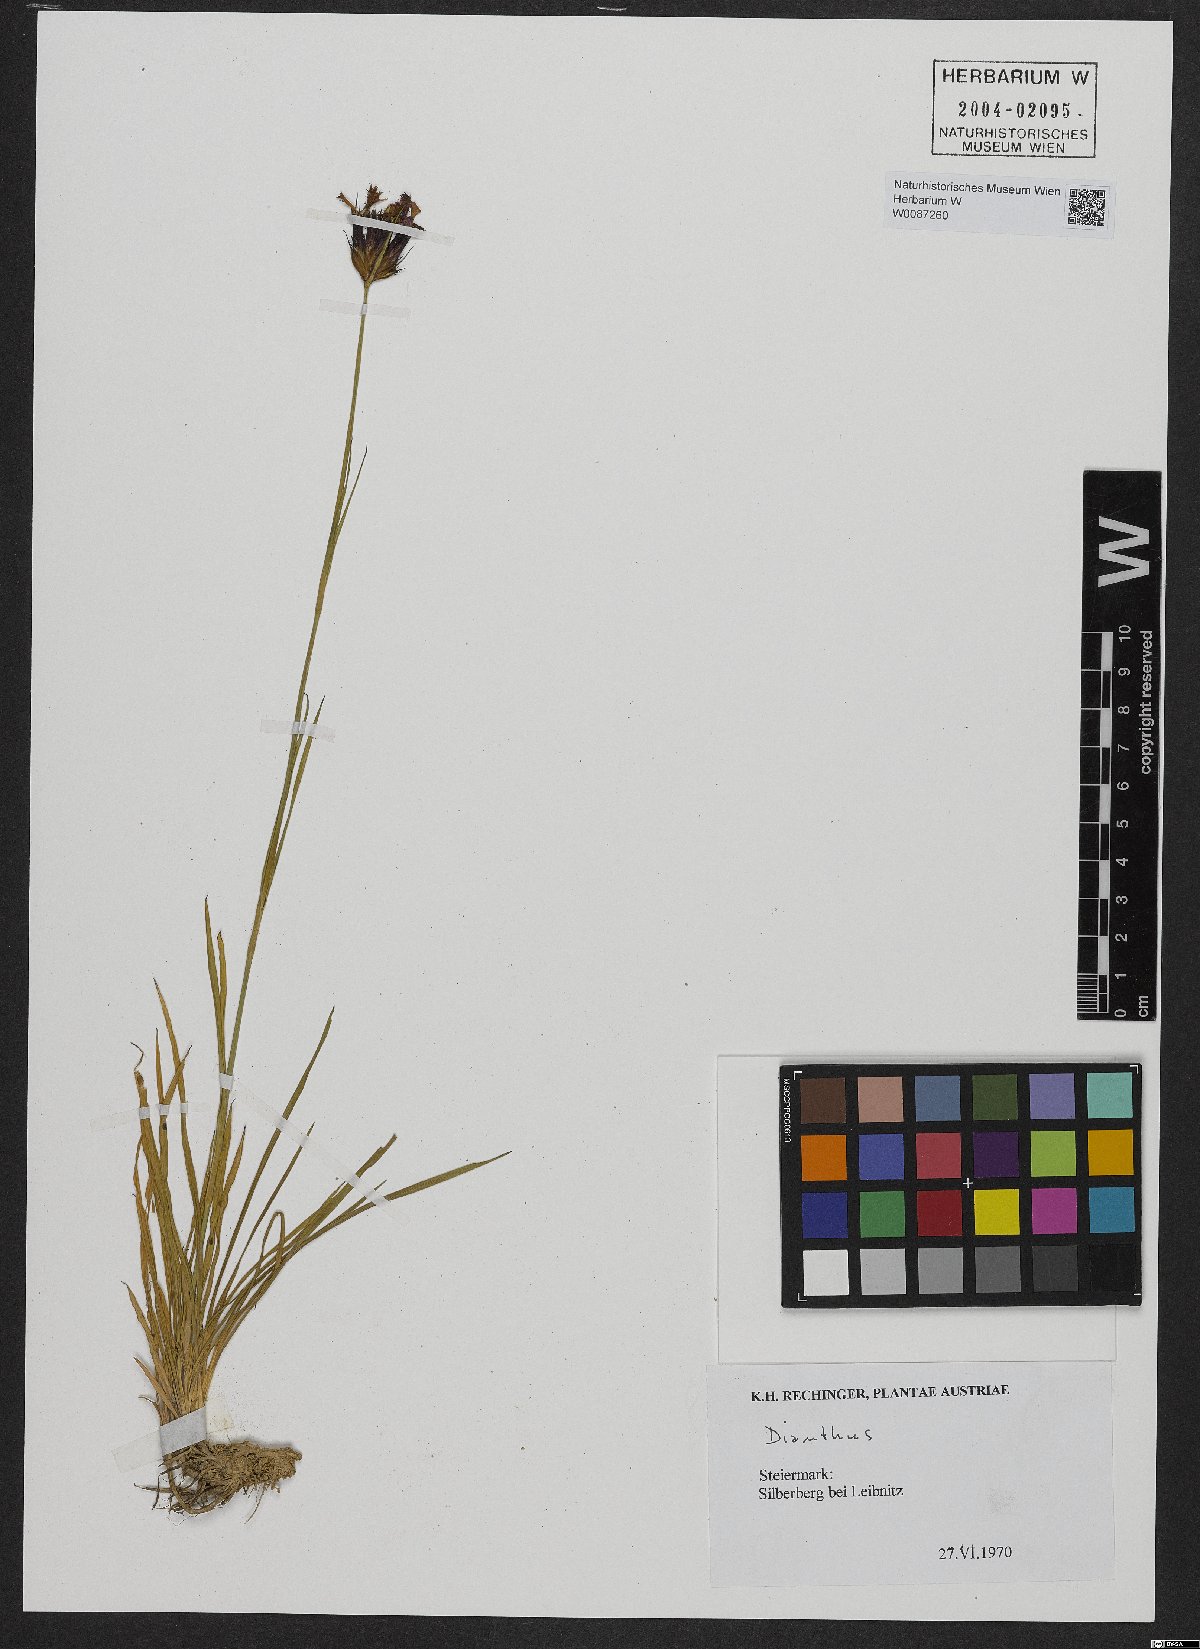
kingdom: Plantae
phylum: Tracheophyta
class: Magnoliopsida
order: Caryophyllales
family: Caryophyllaceae
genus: Dianthus
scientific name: Dianthus carthusianorum
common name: Carthusian pink
